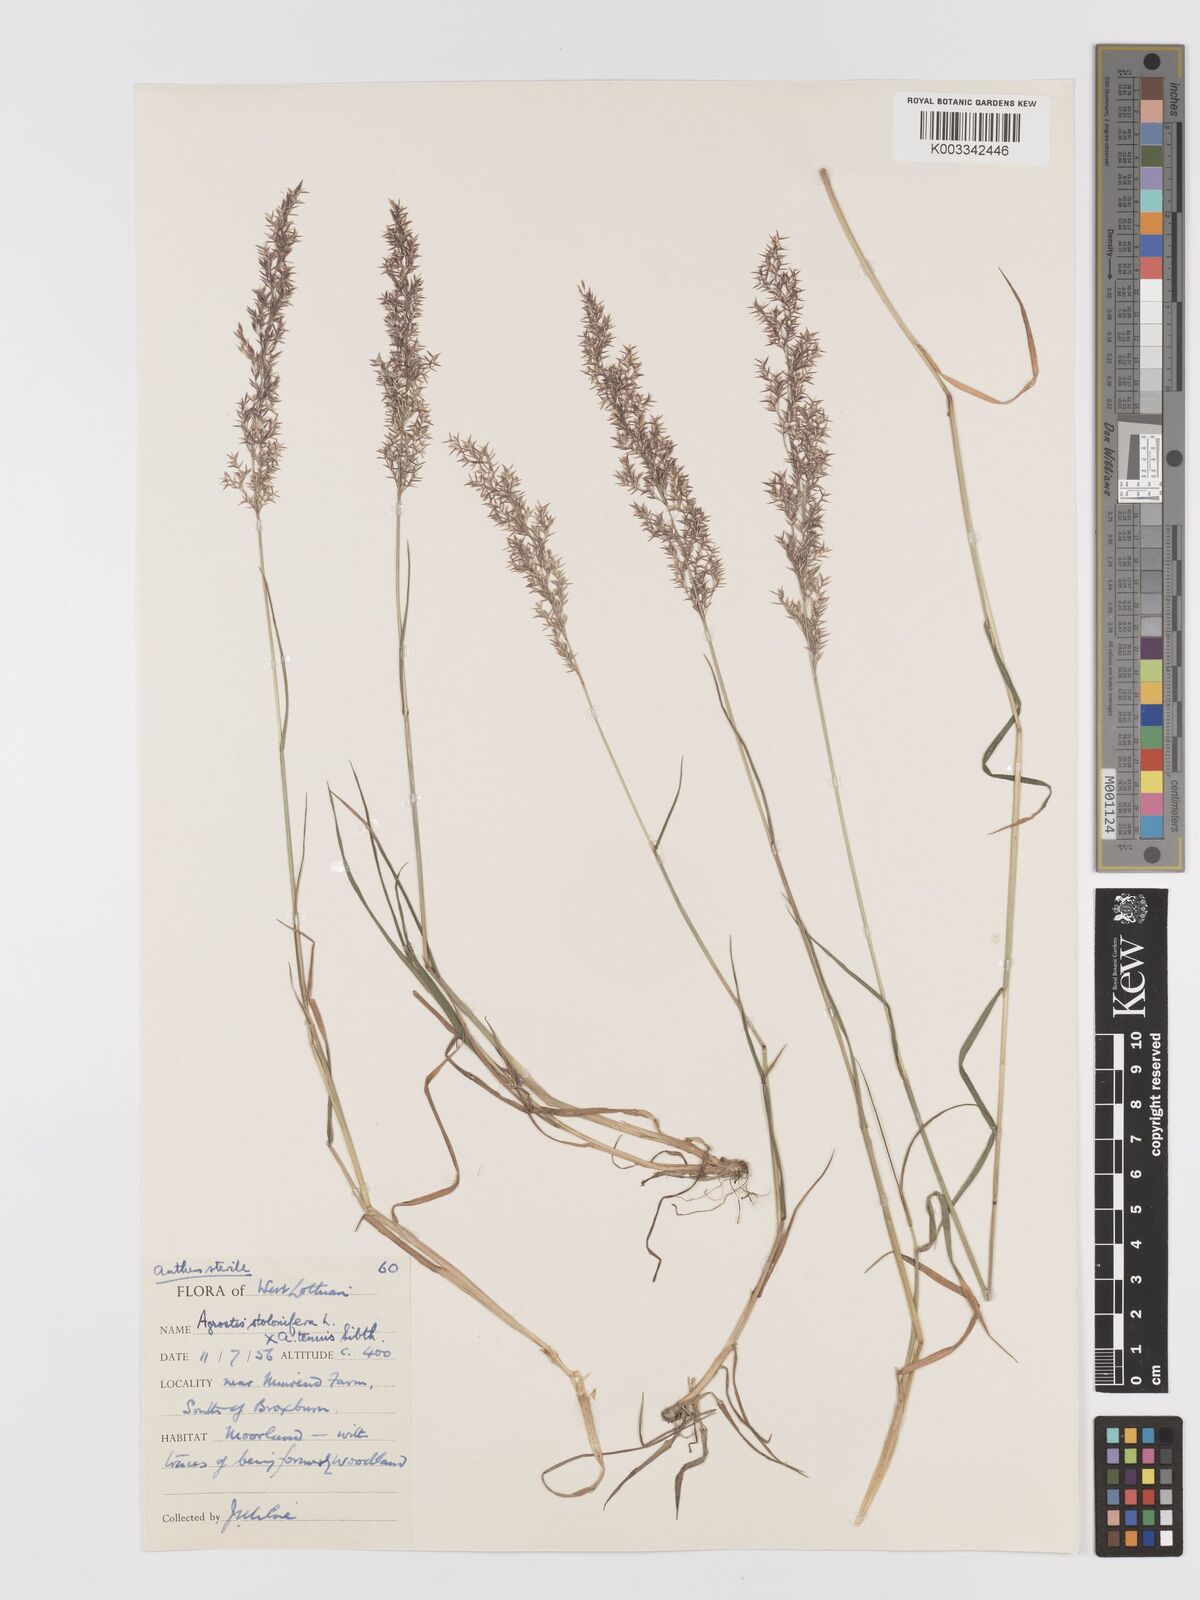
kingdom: Plantae
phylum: Tracheophyta
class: Liliopsida
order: Poales
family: Poaceae
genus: Agrostis
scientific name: Agrostis capillaris
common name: Colonial bentgrass
